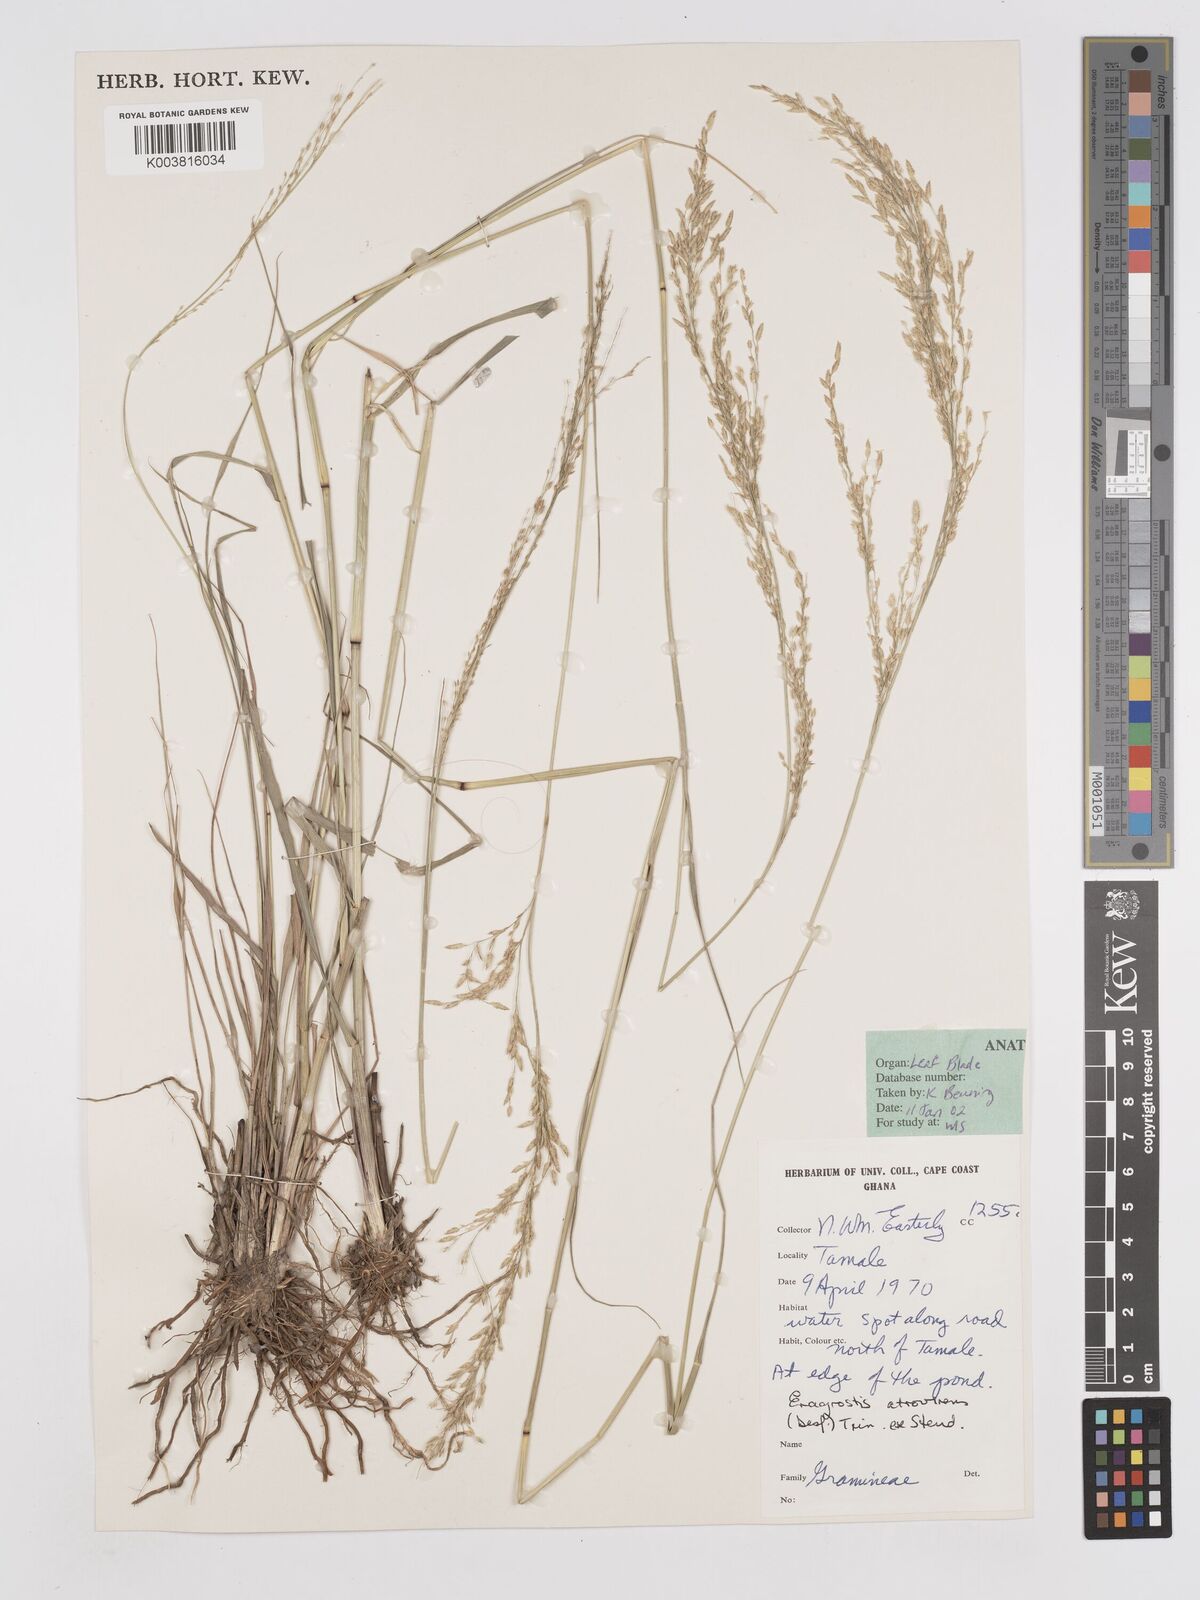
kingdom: Plantae
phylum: Tracheophyta
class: Liliopsida
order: Poales
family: Poaceae
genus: Eragrostis
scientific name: Eragrostis atrovirens
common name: Thalia lovegrass
